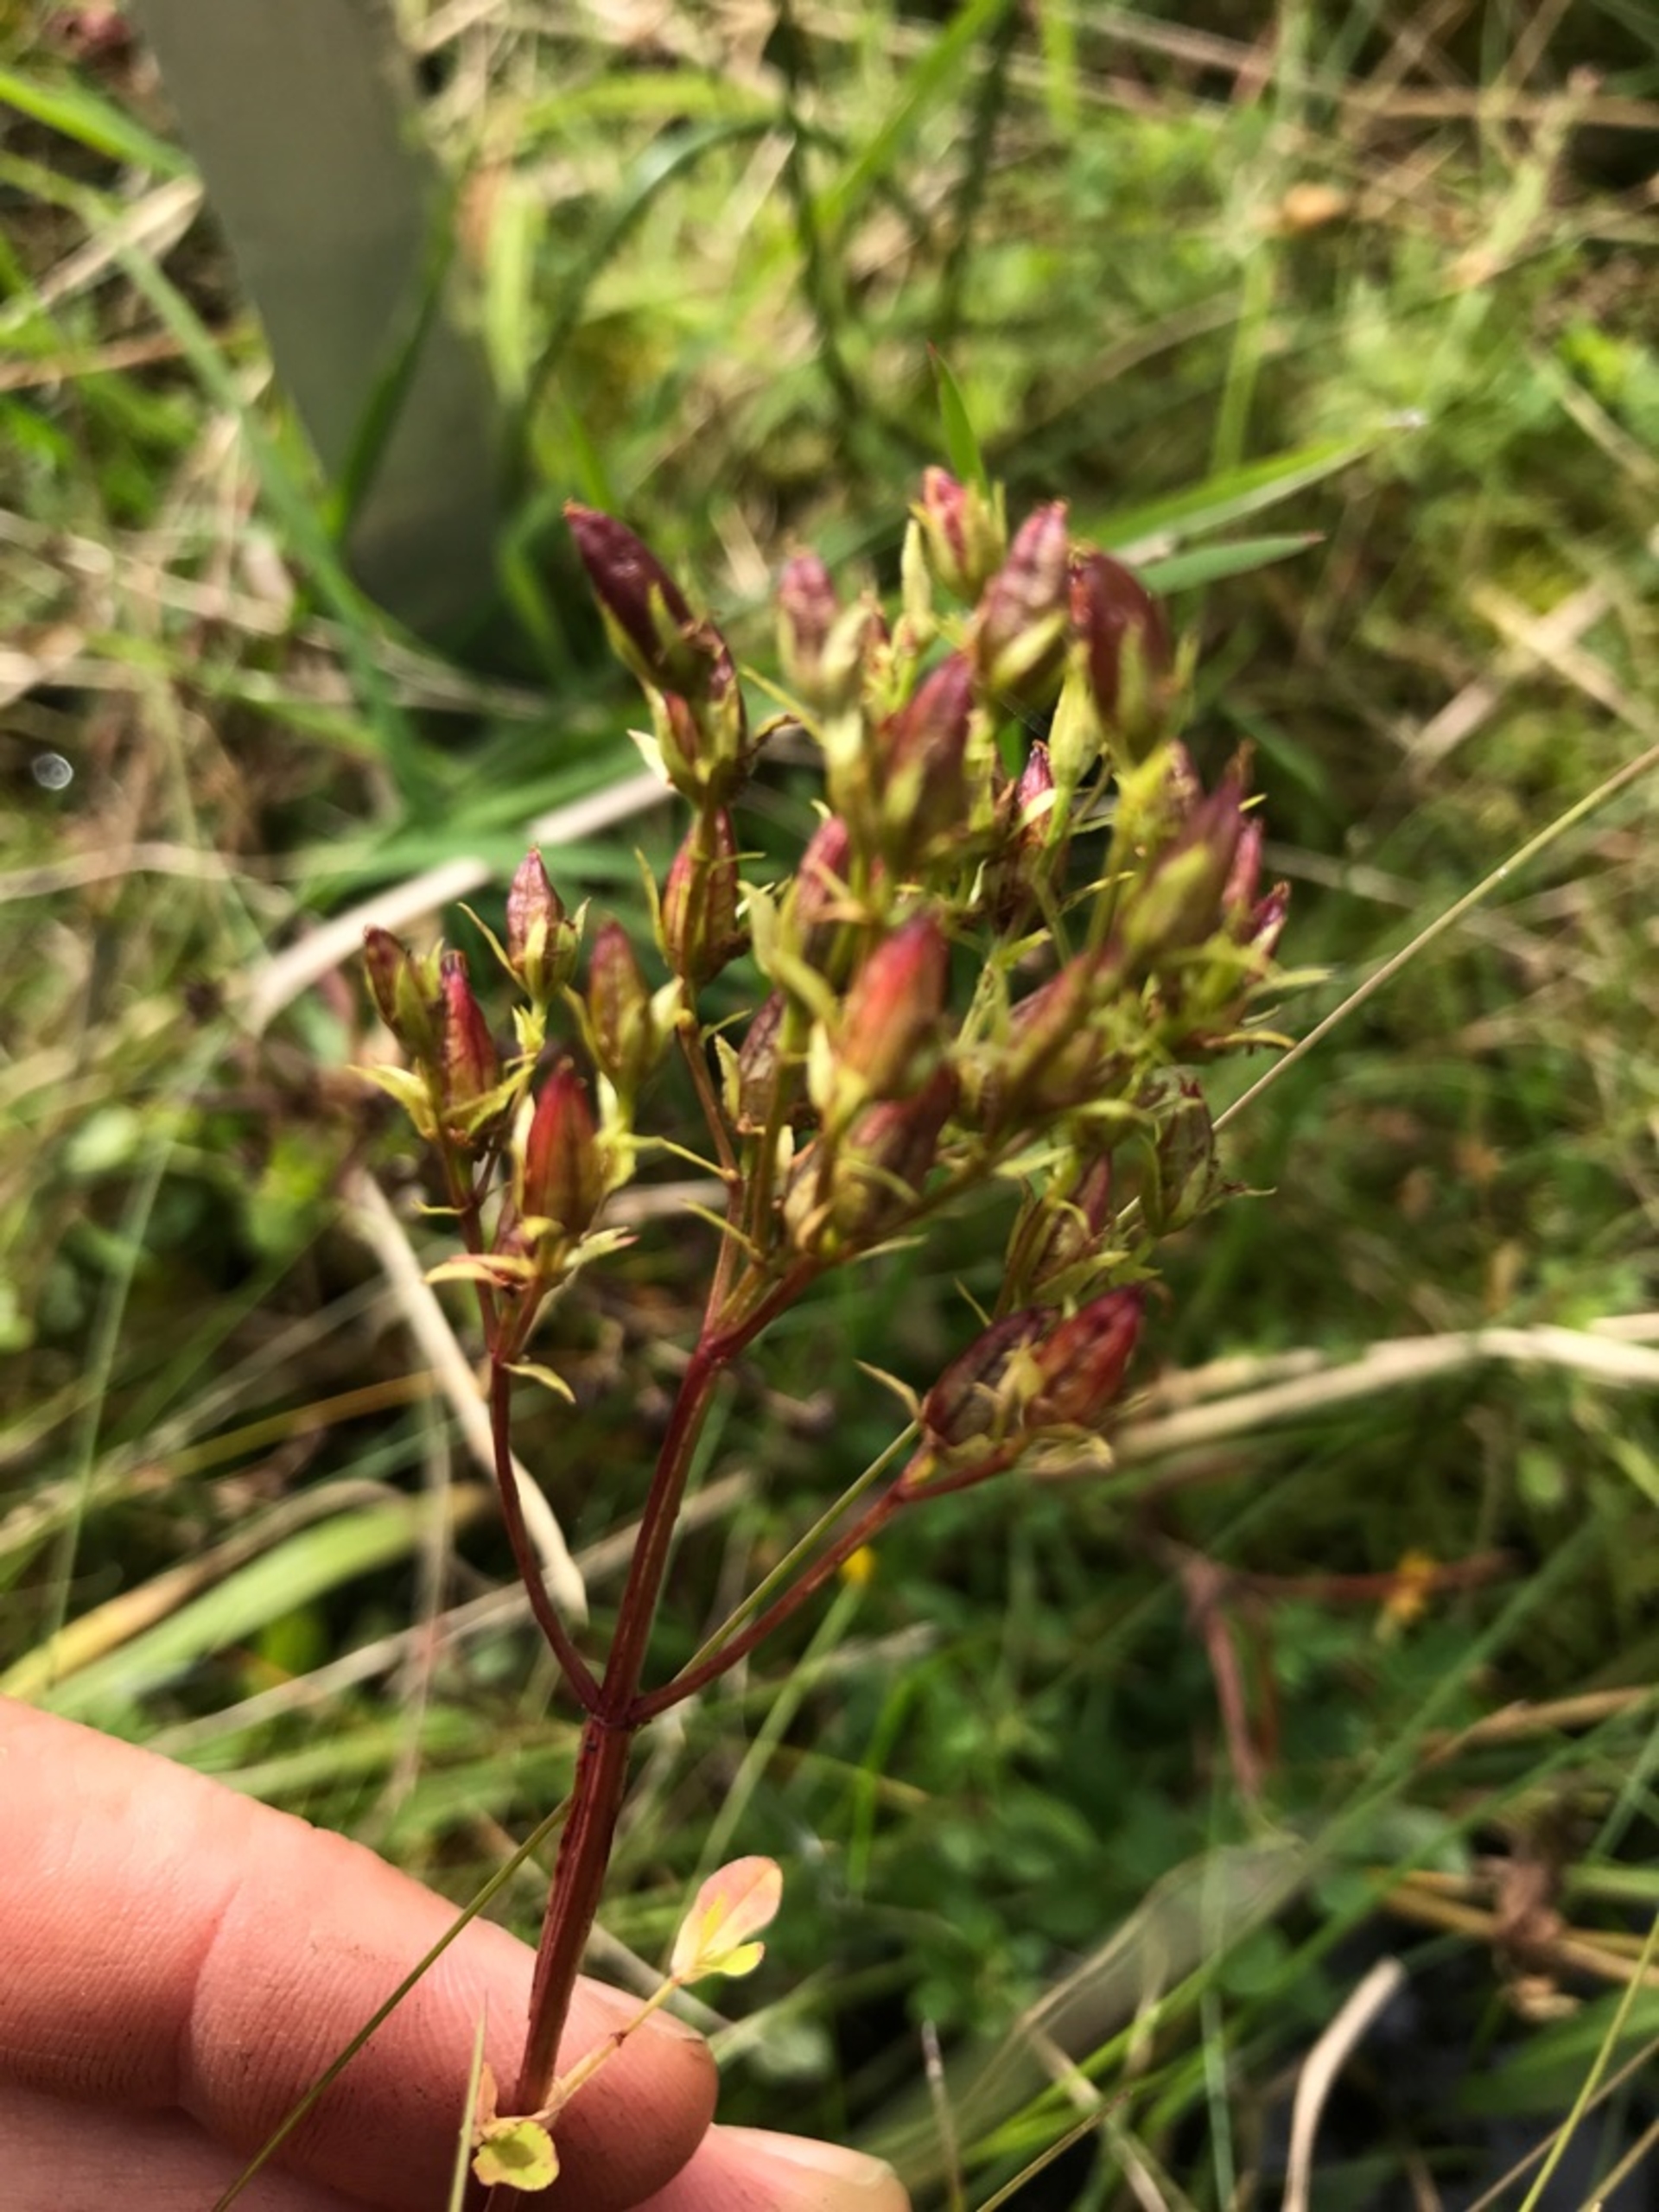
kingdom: Plantae
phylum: Tracheophyta
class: Magnoliopsida
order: Malpighiales
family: Hypericaceae
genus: Hypericum
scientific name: Hypericum tetrapterum
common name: Vinget perikon
